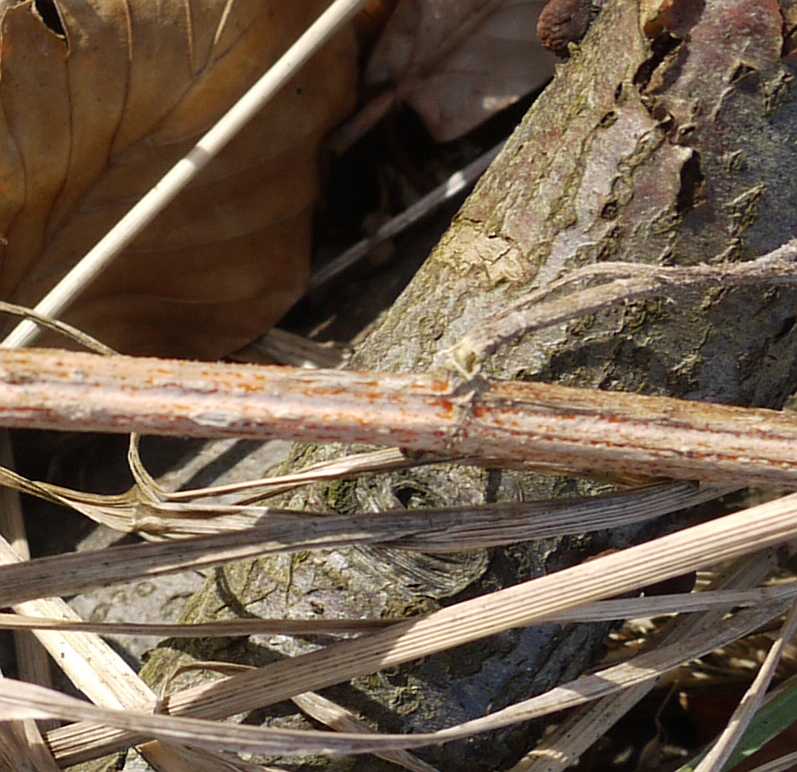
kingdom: Fungi
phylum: Ascomycota
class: Leotiomycetes
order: Helotiales
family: Calloriaceae
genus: Calloria
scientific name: Calloria urticae
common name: nælde-orangeskive
